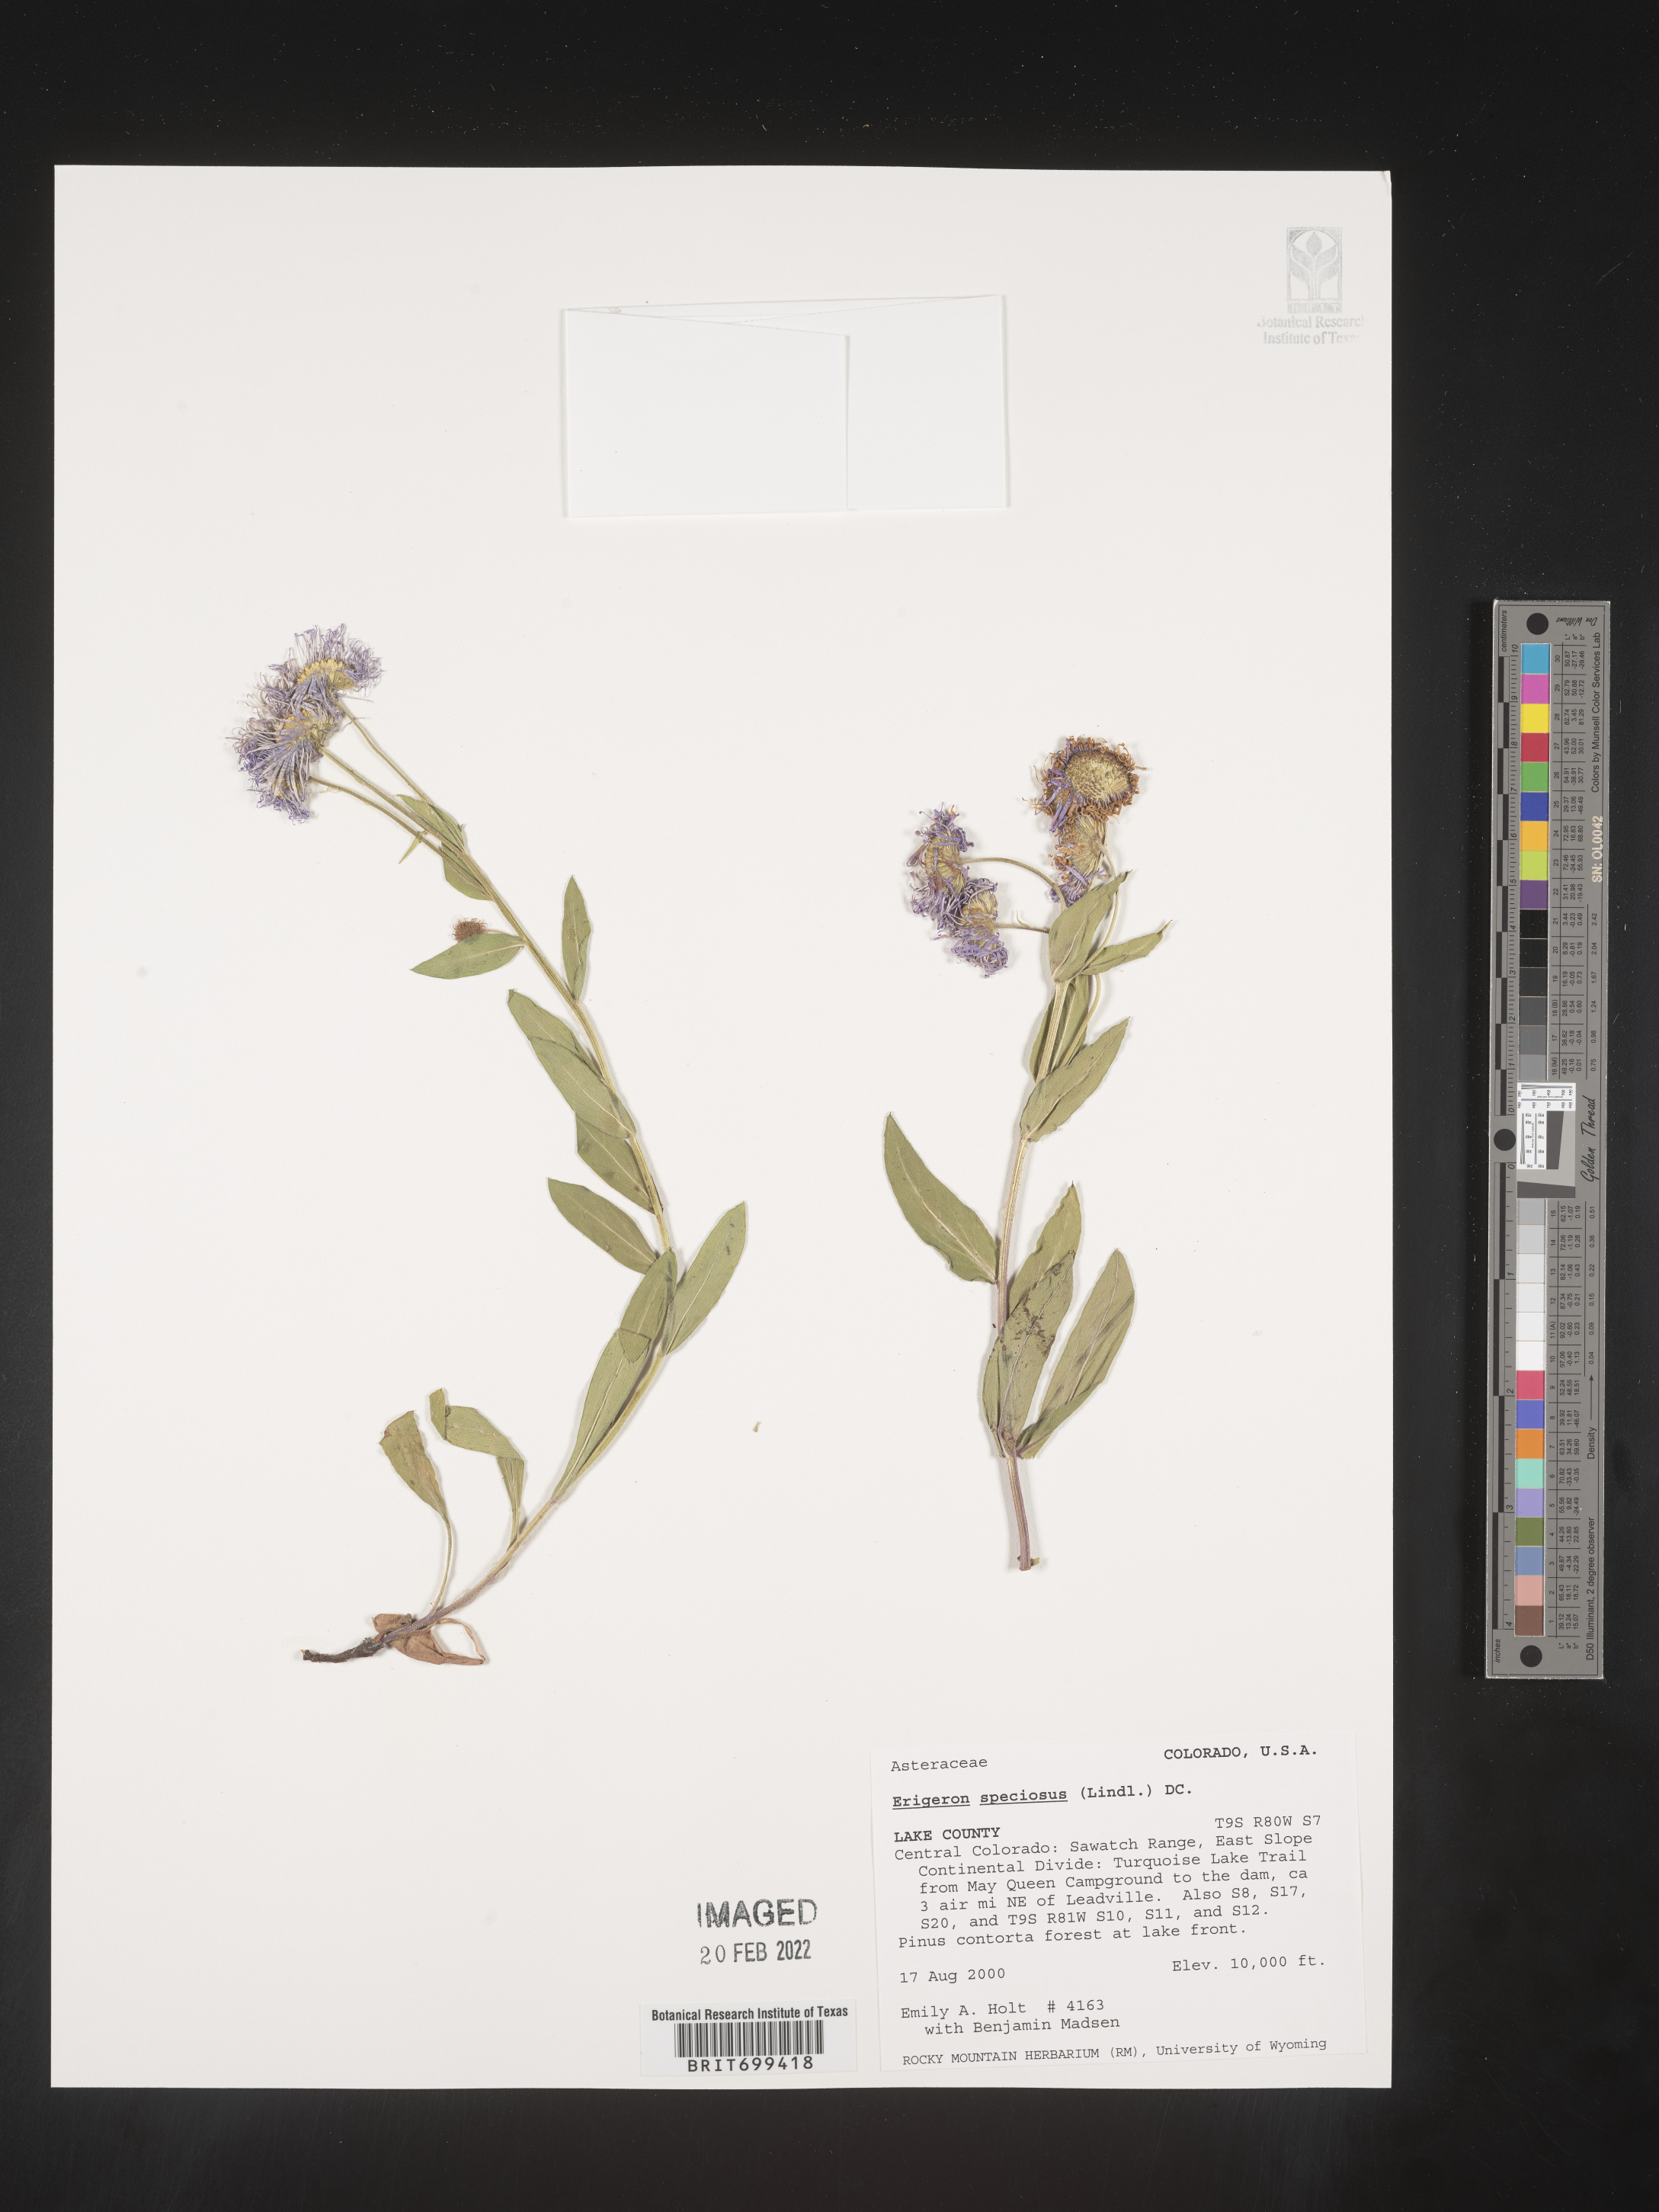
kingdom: Plantae
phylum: Tracheophyta
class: Magnoliopsida
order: Asterales
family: Asteraceae
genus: Erigeron
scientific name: Erigeron speciosus
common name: Aspen fleabane
